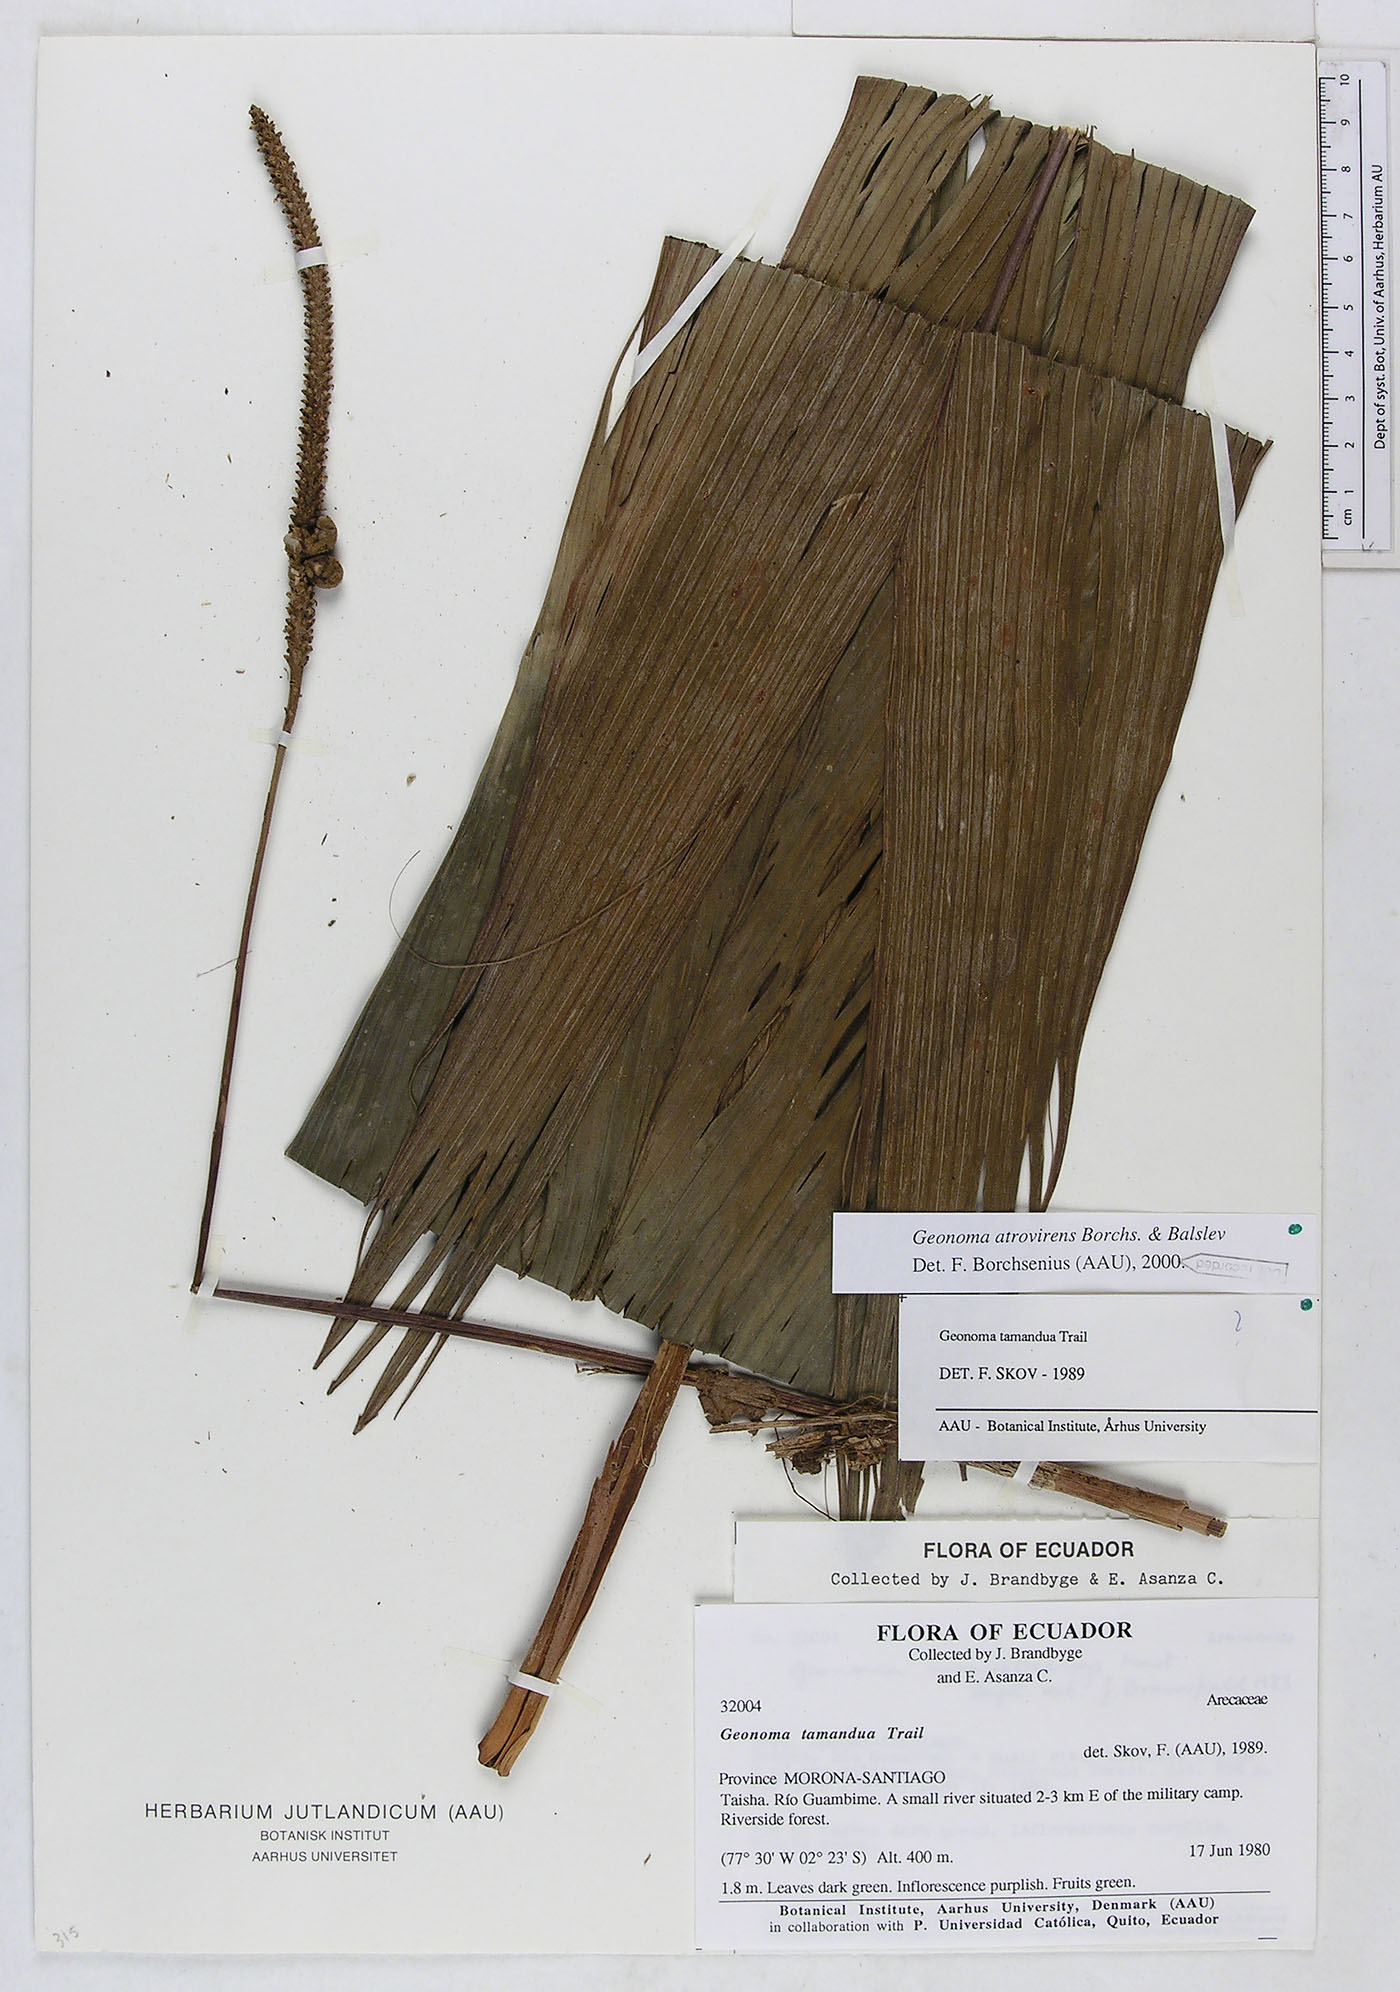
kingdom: Plantae
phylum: Tracheophyta
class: Liliopsida
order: Arecales
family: Arecaceae
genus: Geonoma
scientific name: Geonoma macrostachys
